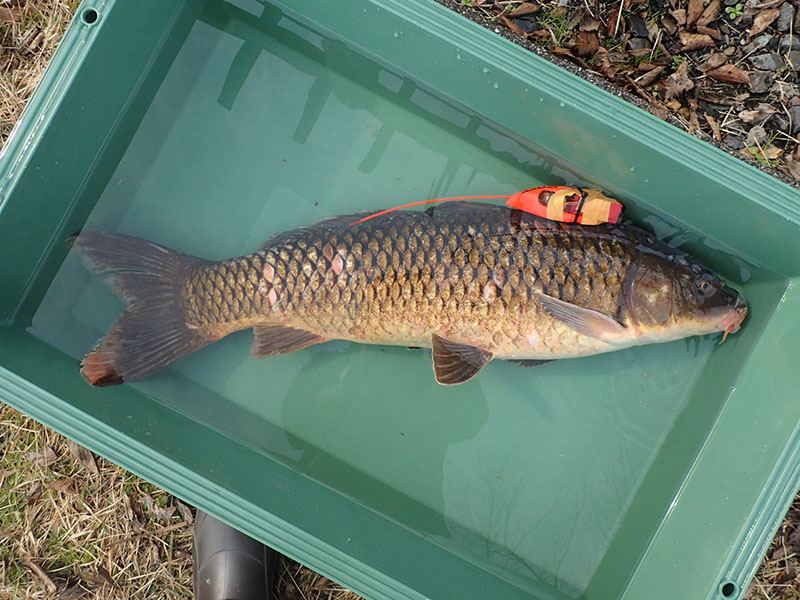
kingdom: Animalia
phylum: Chordata
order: Cypriniformes
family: Cyprinidae
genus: Cyprinus
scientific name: Cyprinus carpio
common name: コイ
